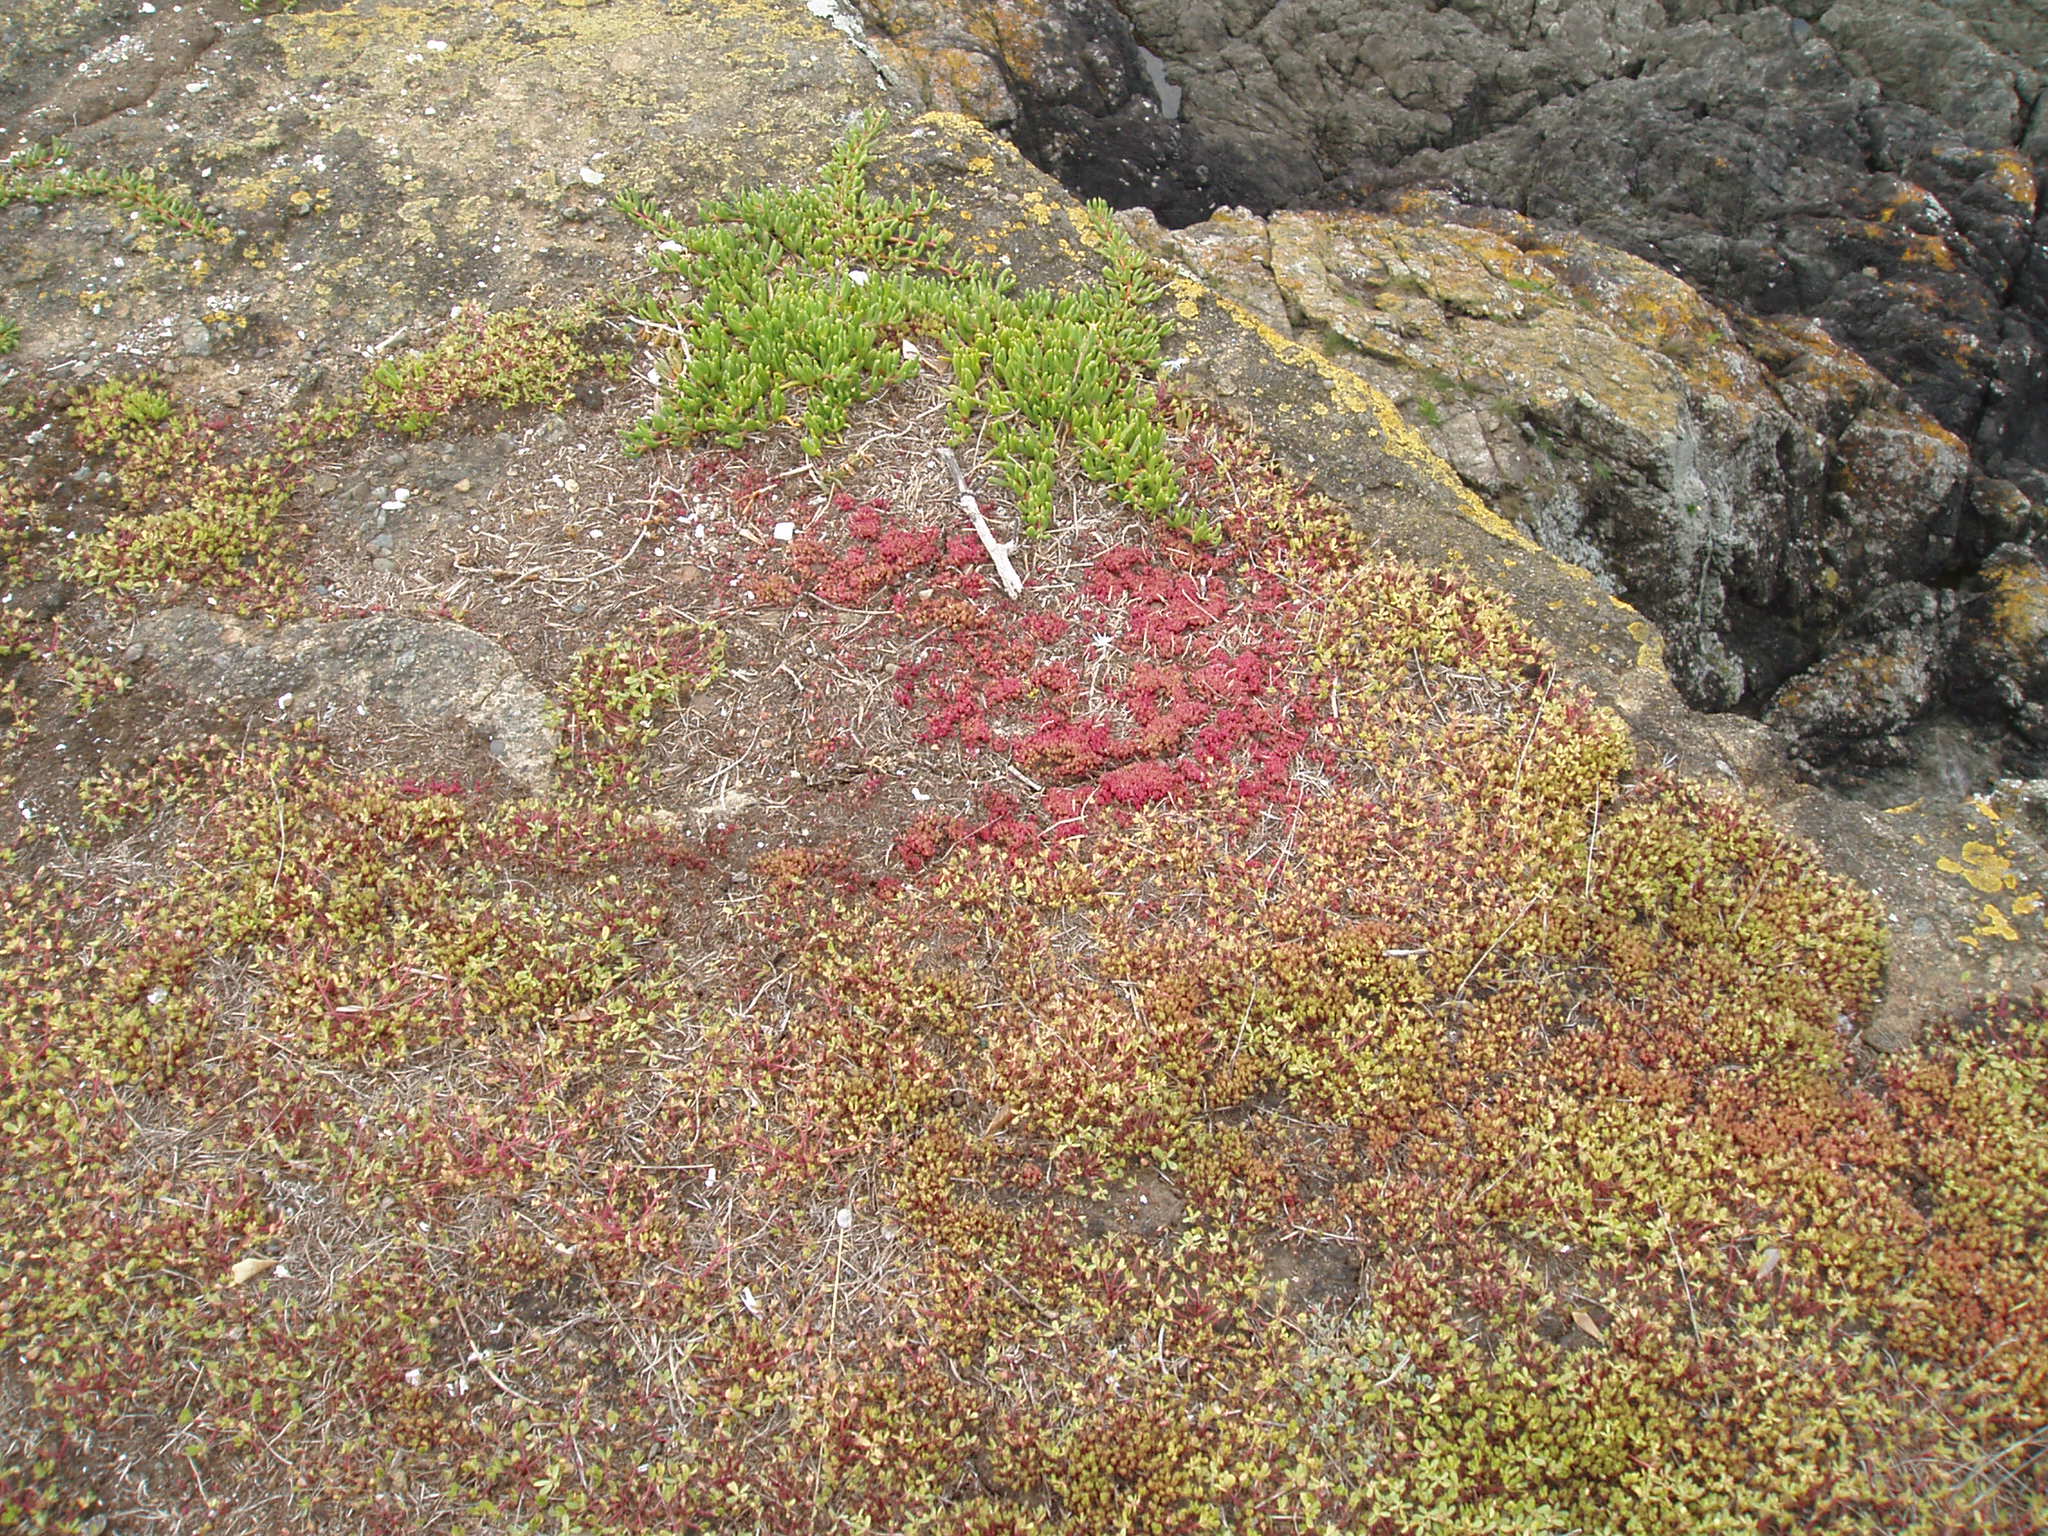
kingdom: Plantae
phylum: Tracheophyta
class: Magnoliopsida
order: Caryophyllales
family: Portulacaceae
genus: Portulaca
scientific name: Portulaca oleracea
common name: Common purslane
